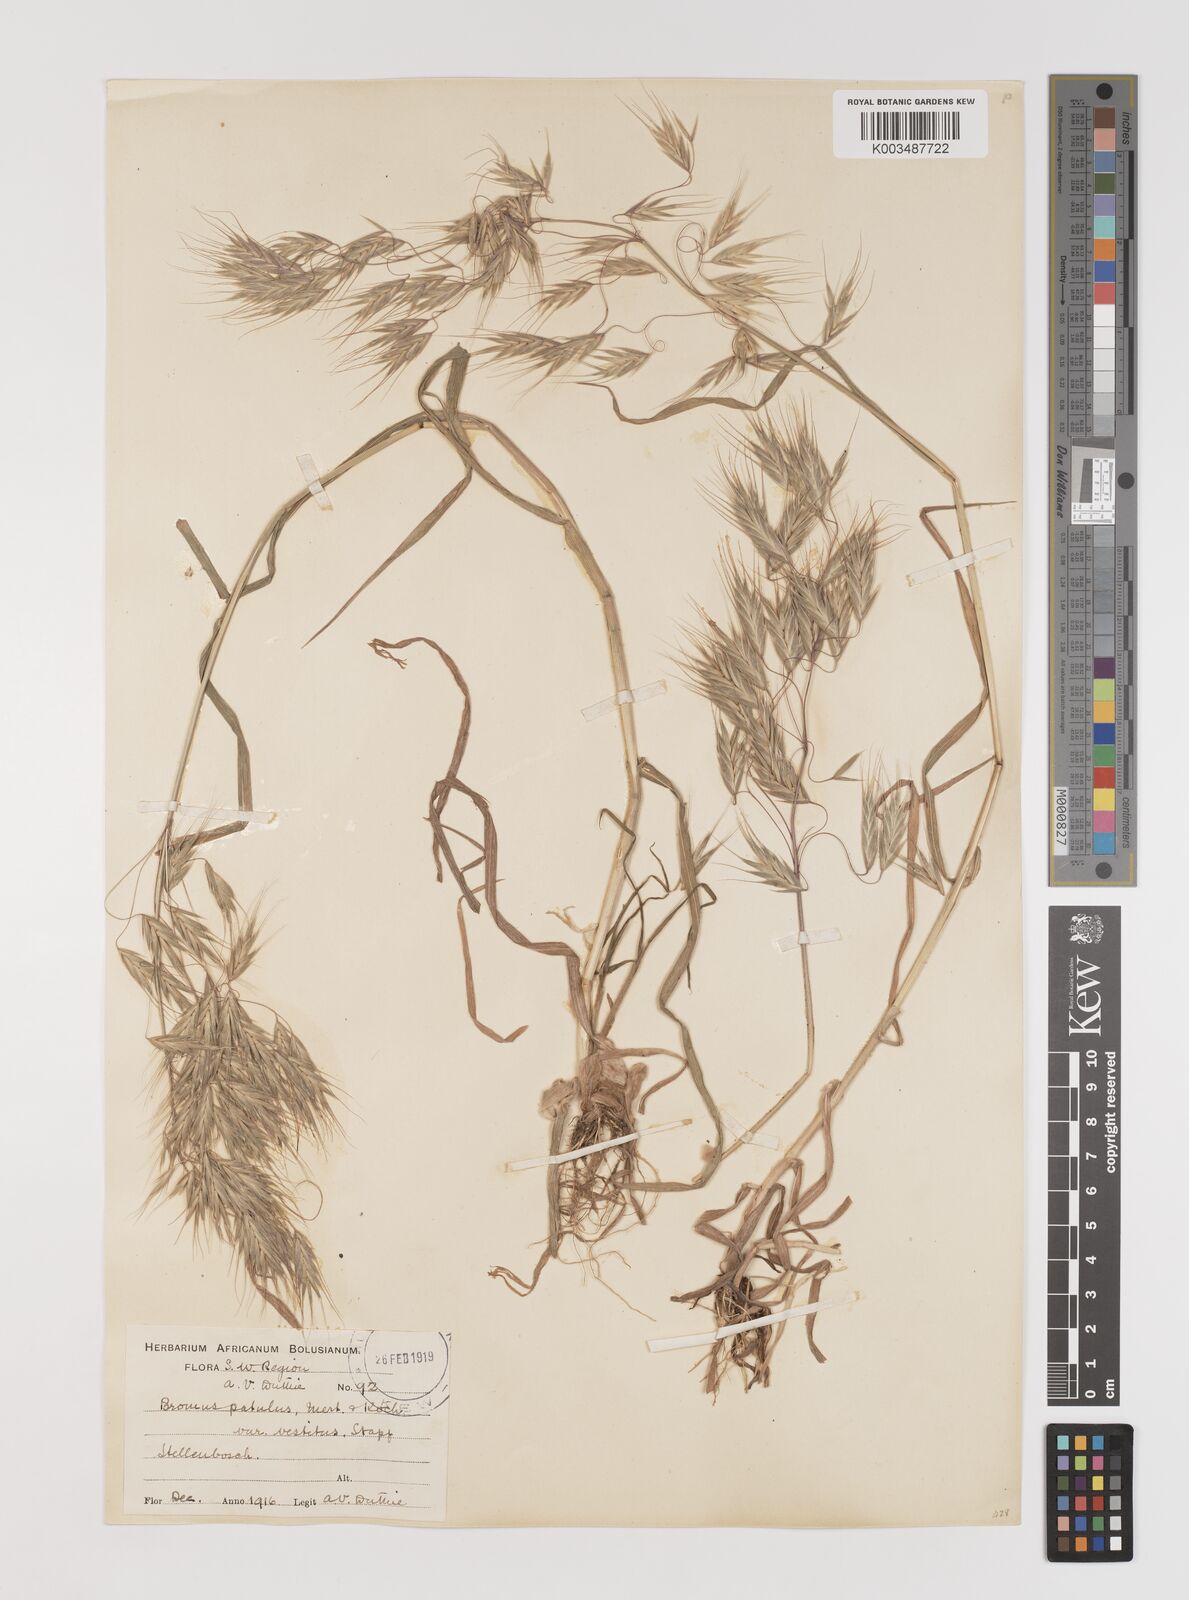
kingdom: Plantae
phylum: Tracheophyta
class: Liliopsida
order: Poales
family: Poaceae
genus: Bromus
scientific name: Bromus pectinatus
